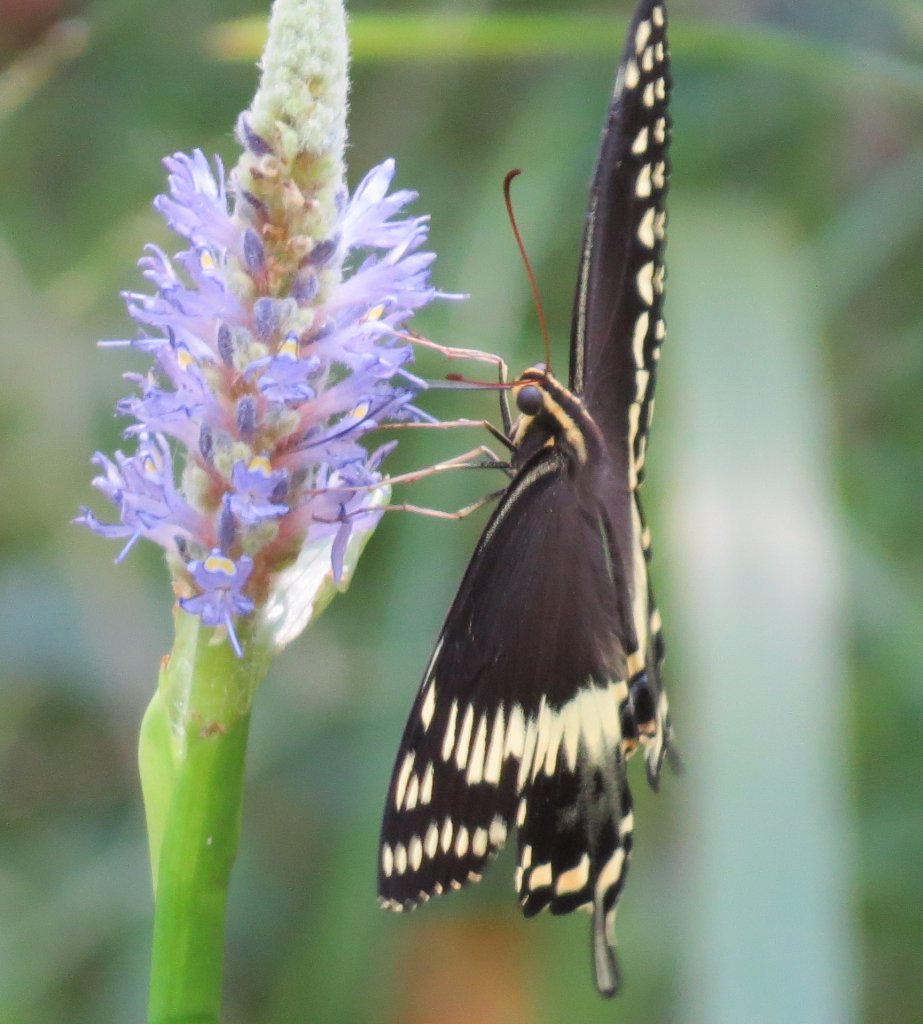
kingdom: Animalia
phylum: Arthropoda
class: Insecta
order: Lepidoptera
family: Papilionidae
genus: Pterourus
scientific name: Pterourus palamedes
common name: Palamedes Swallowtail
